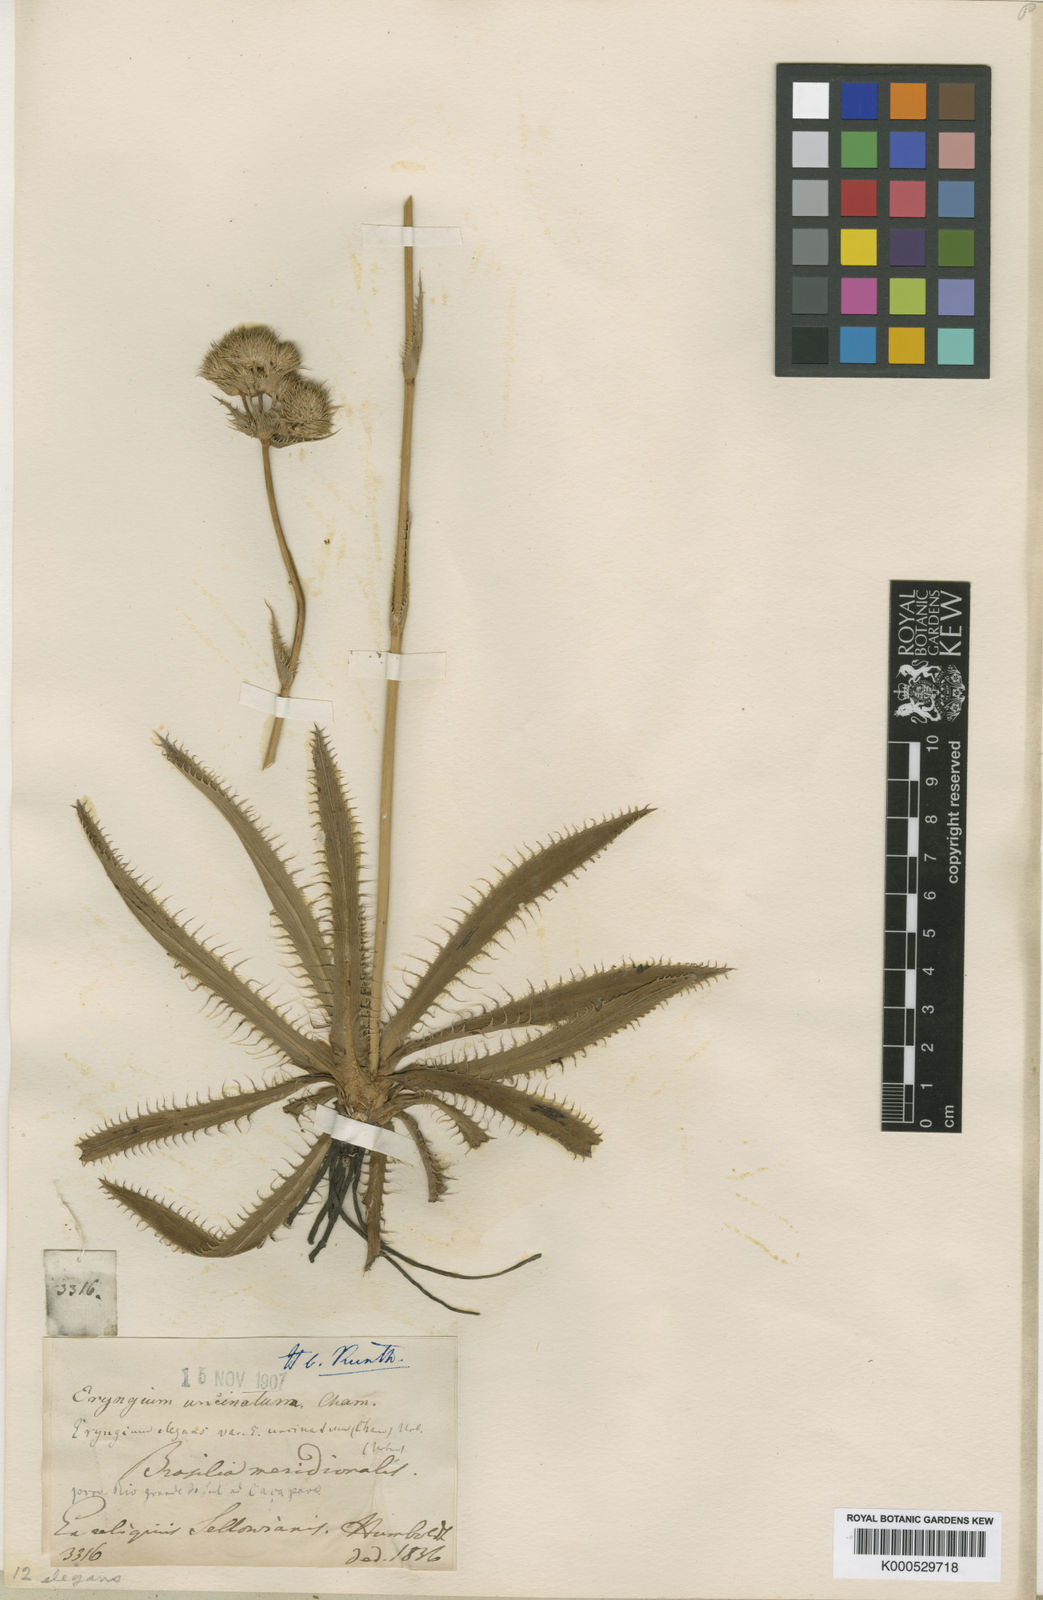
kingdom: Plantae
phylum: Tracheophyta
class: Magnoliopsida
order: Apiales
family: Apiaceae
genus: Eryngium
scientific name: Eryngium elegans
